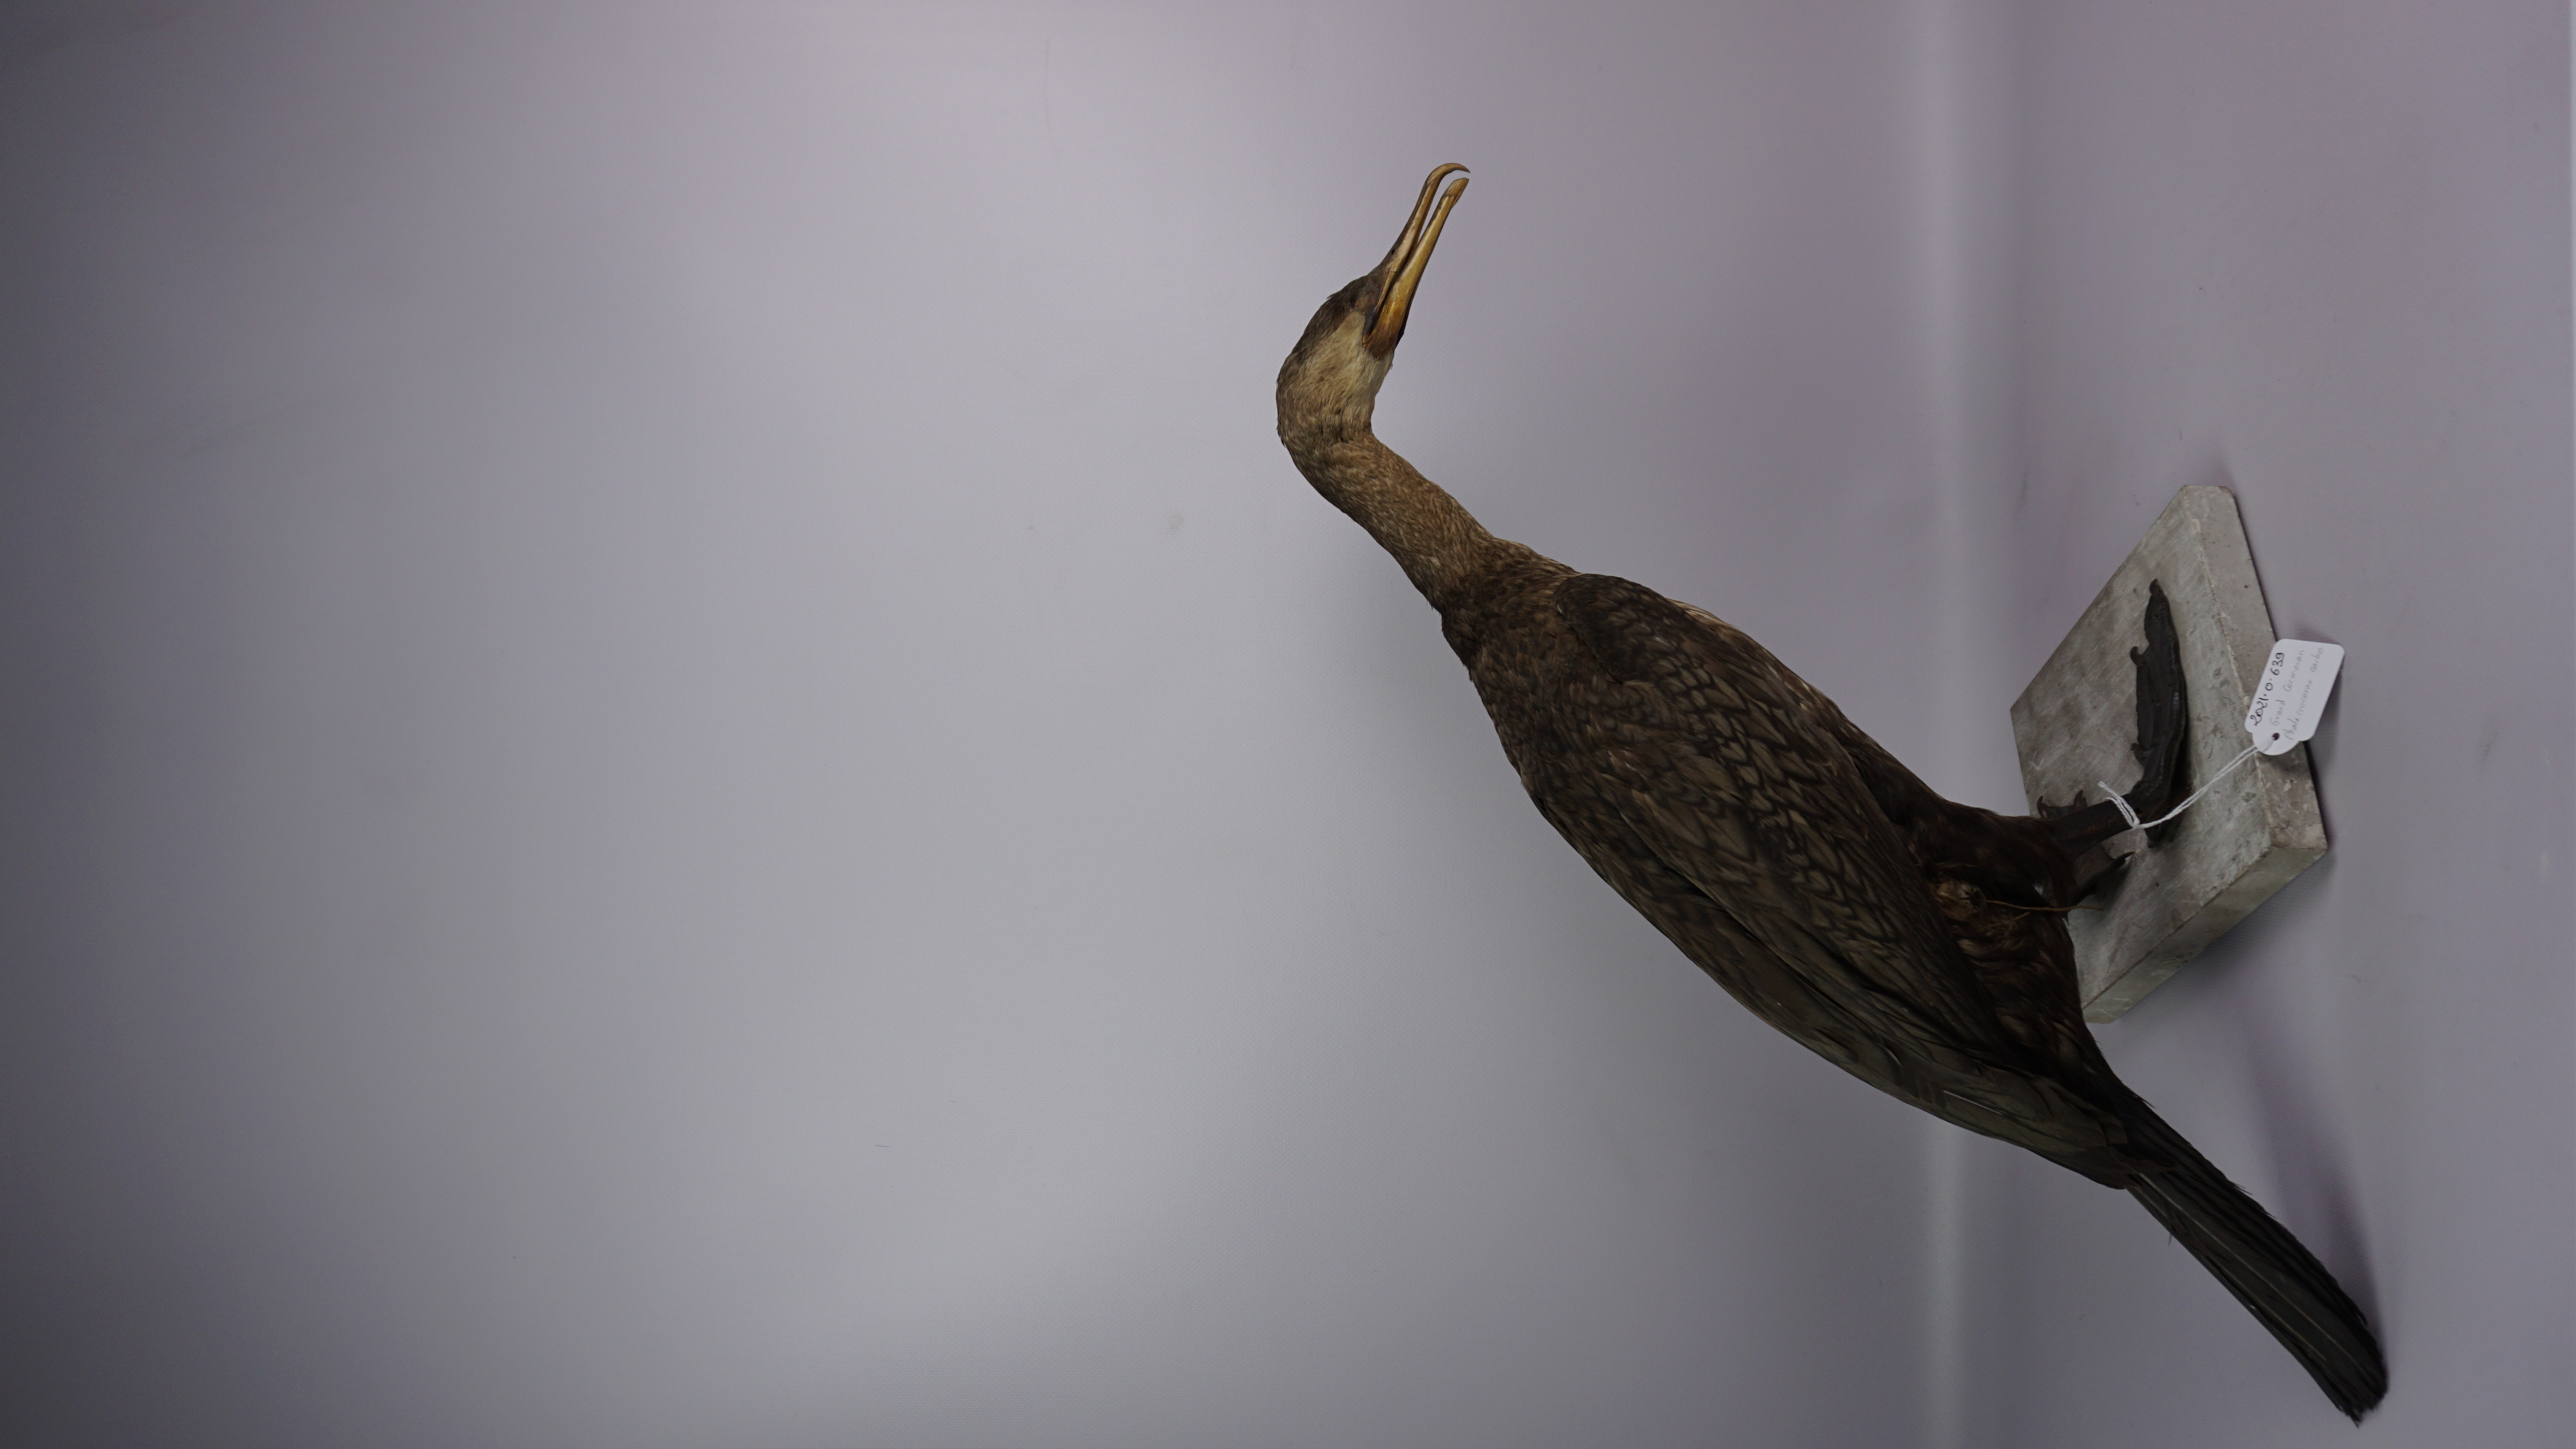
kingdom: Animalia
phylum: Chordata
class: Aves
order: Suliformes
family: Phalacrocoracidae
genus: Phalacrocorax
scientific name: Phalacrocorax carbo
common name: Great cormorant
